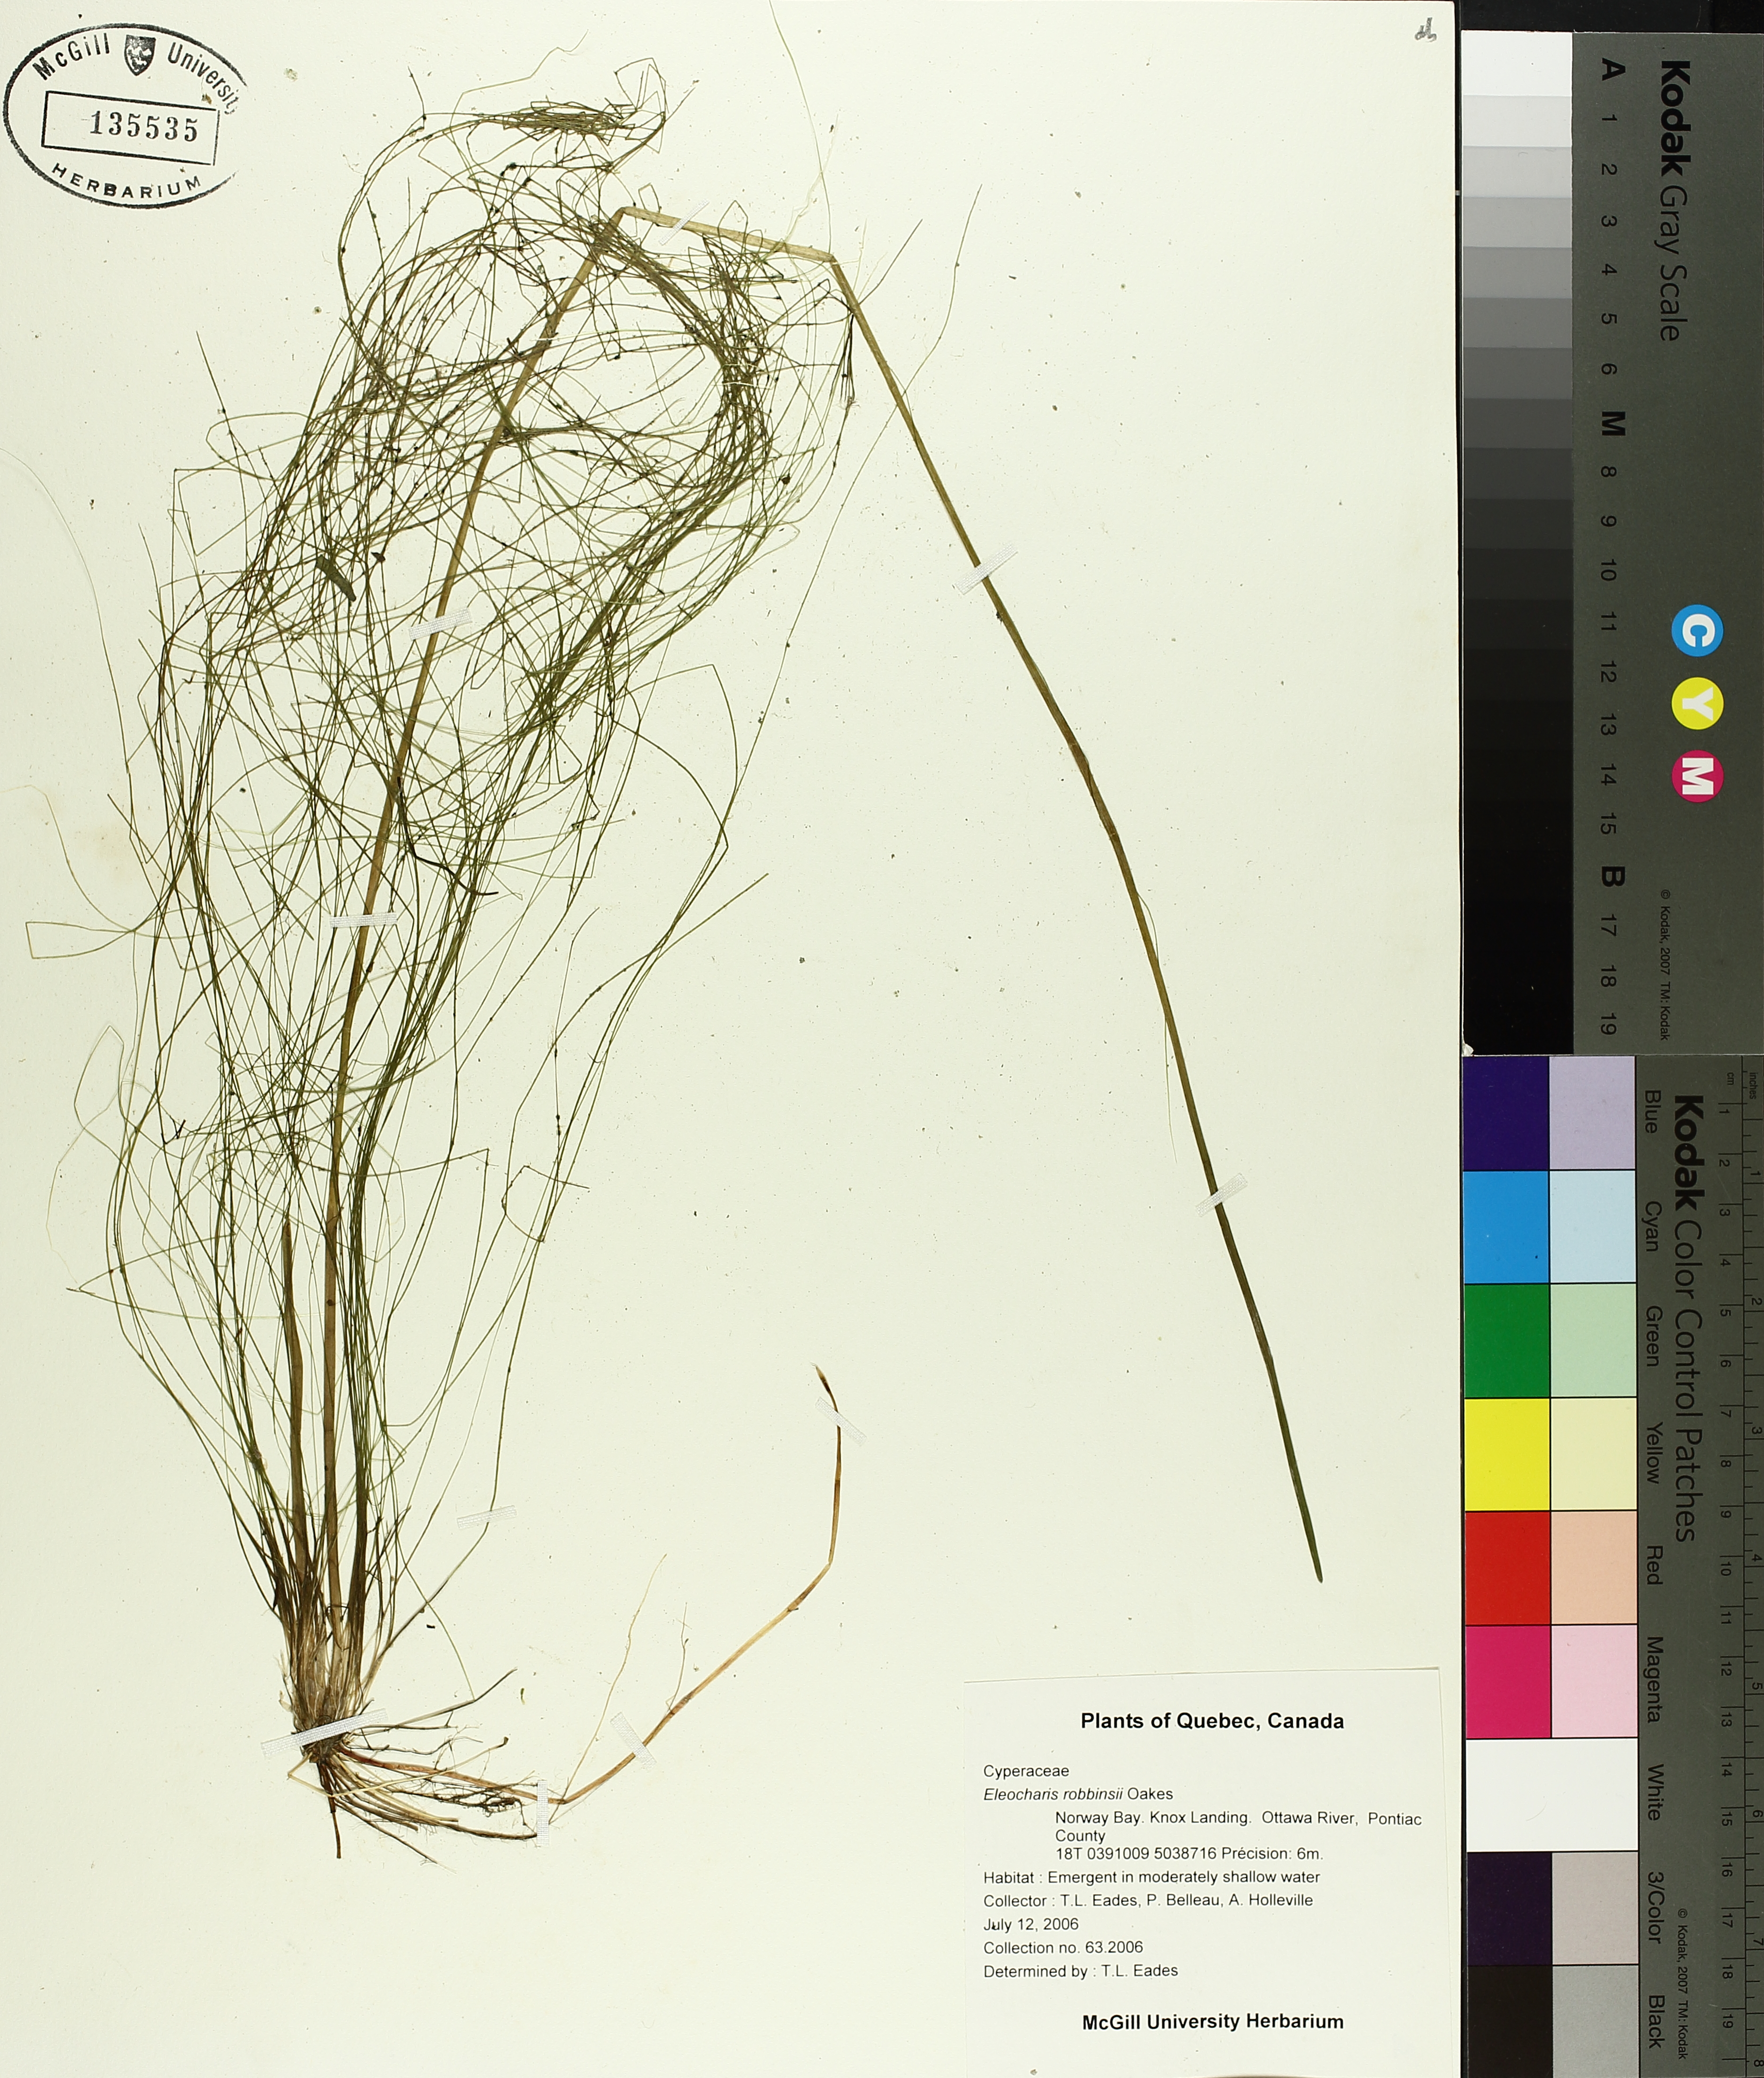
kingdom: Plantae
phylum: Tracheophyta
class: Liliopsida
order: Poales
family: Cyperaceae
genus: Eleocharis
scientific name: Eleocharis robbinsii
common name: Robbins' spikerush
